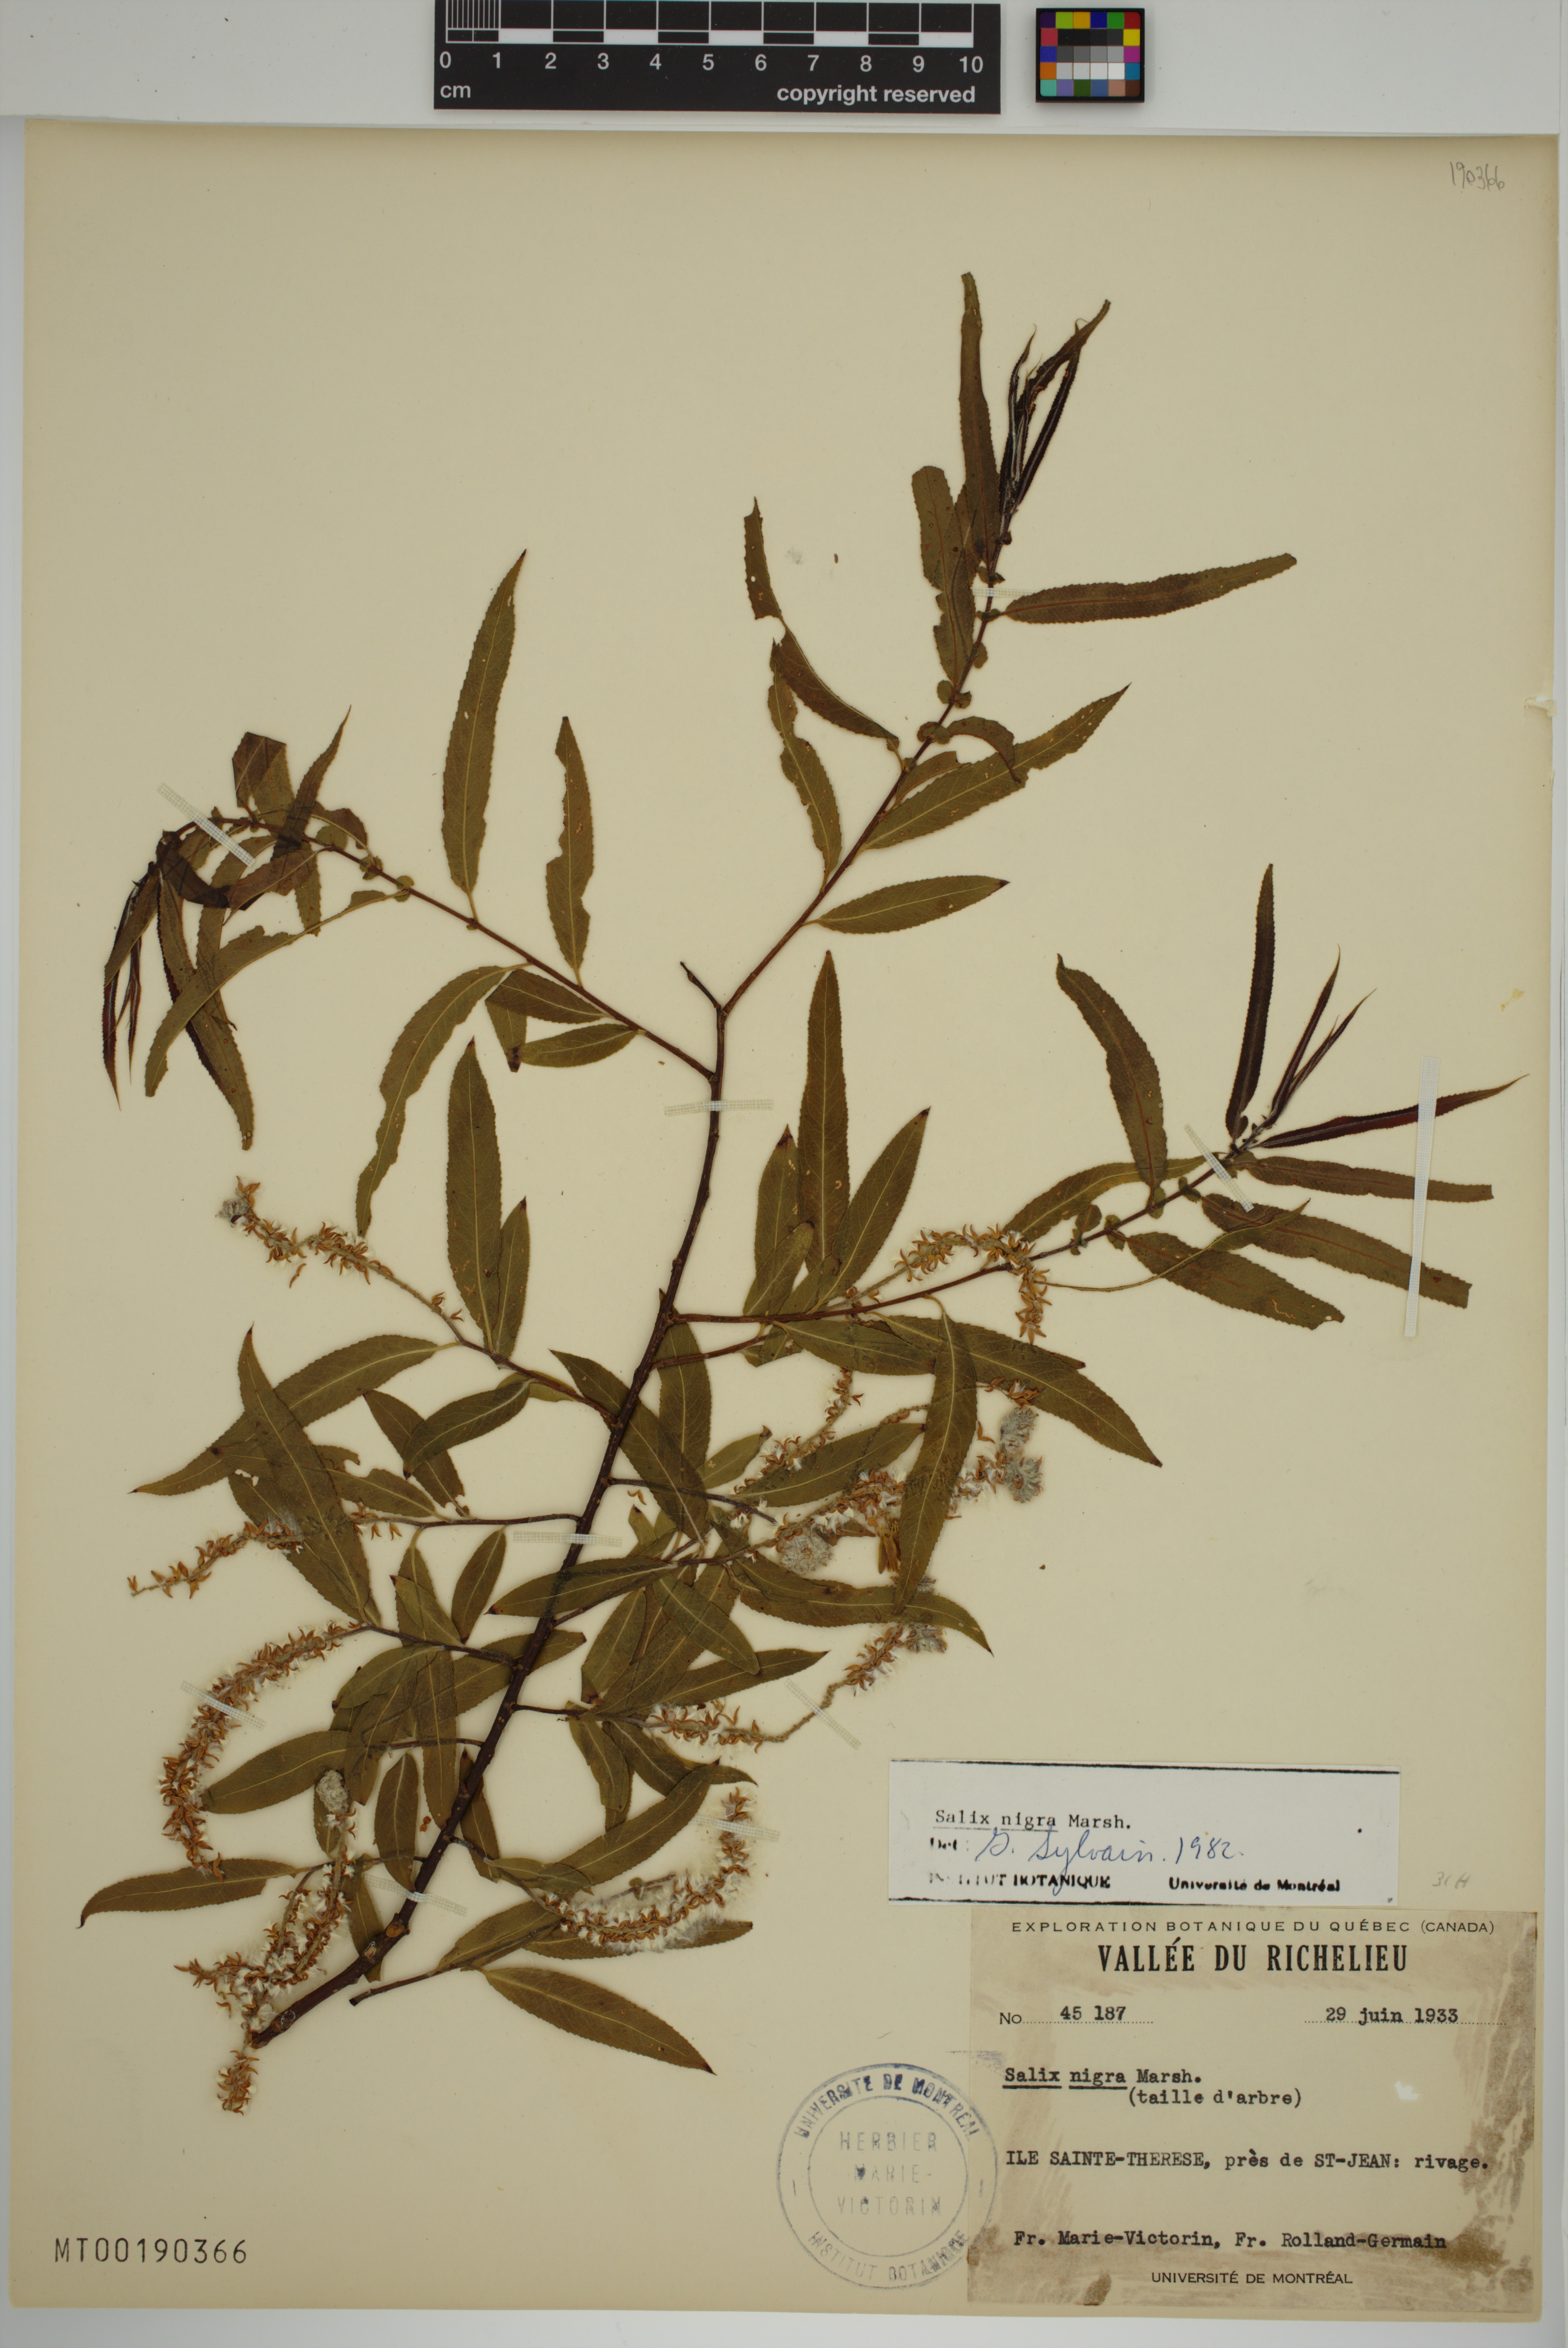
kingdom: Plantae
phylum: Tracheophyta
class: Magnoliopsida
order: Malpighiales
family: Salicaceae
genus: Salix
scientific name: Salix nigra
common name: Black willow
